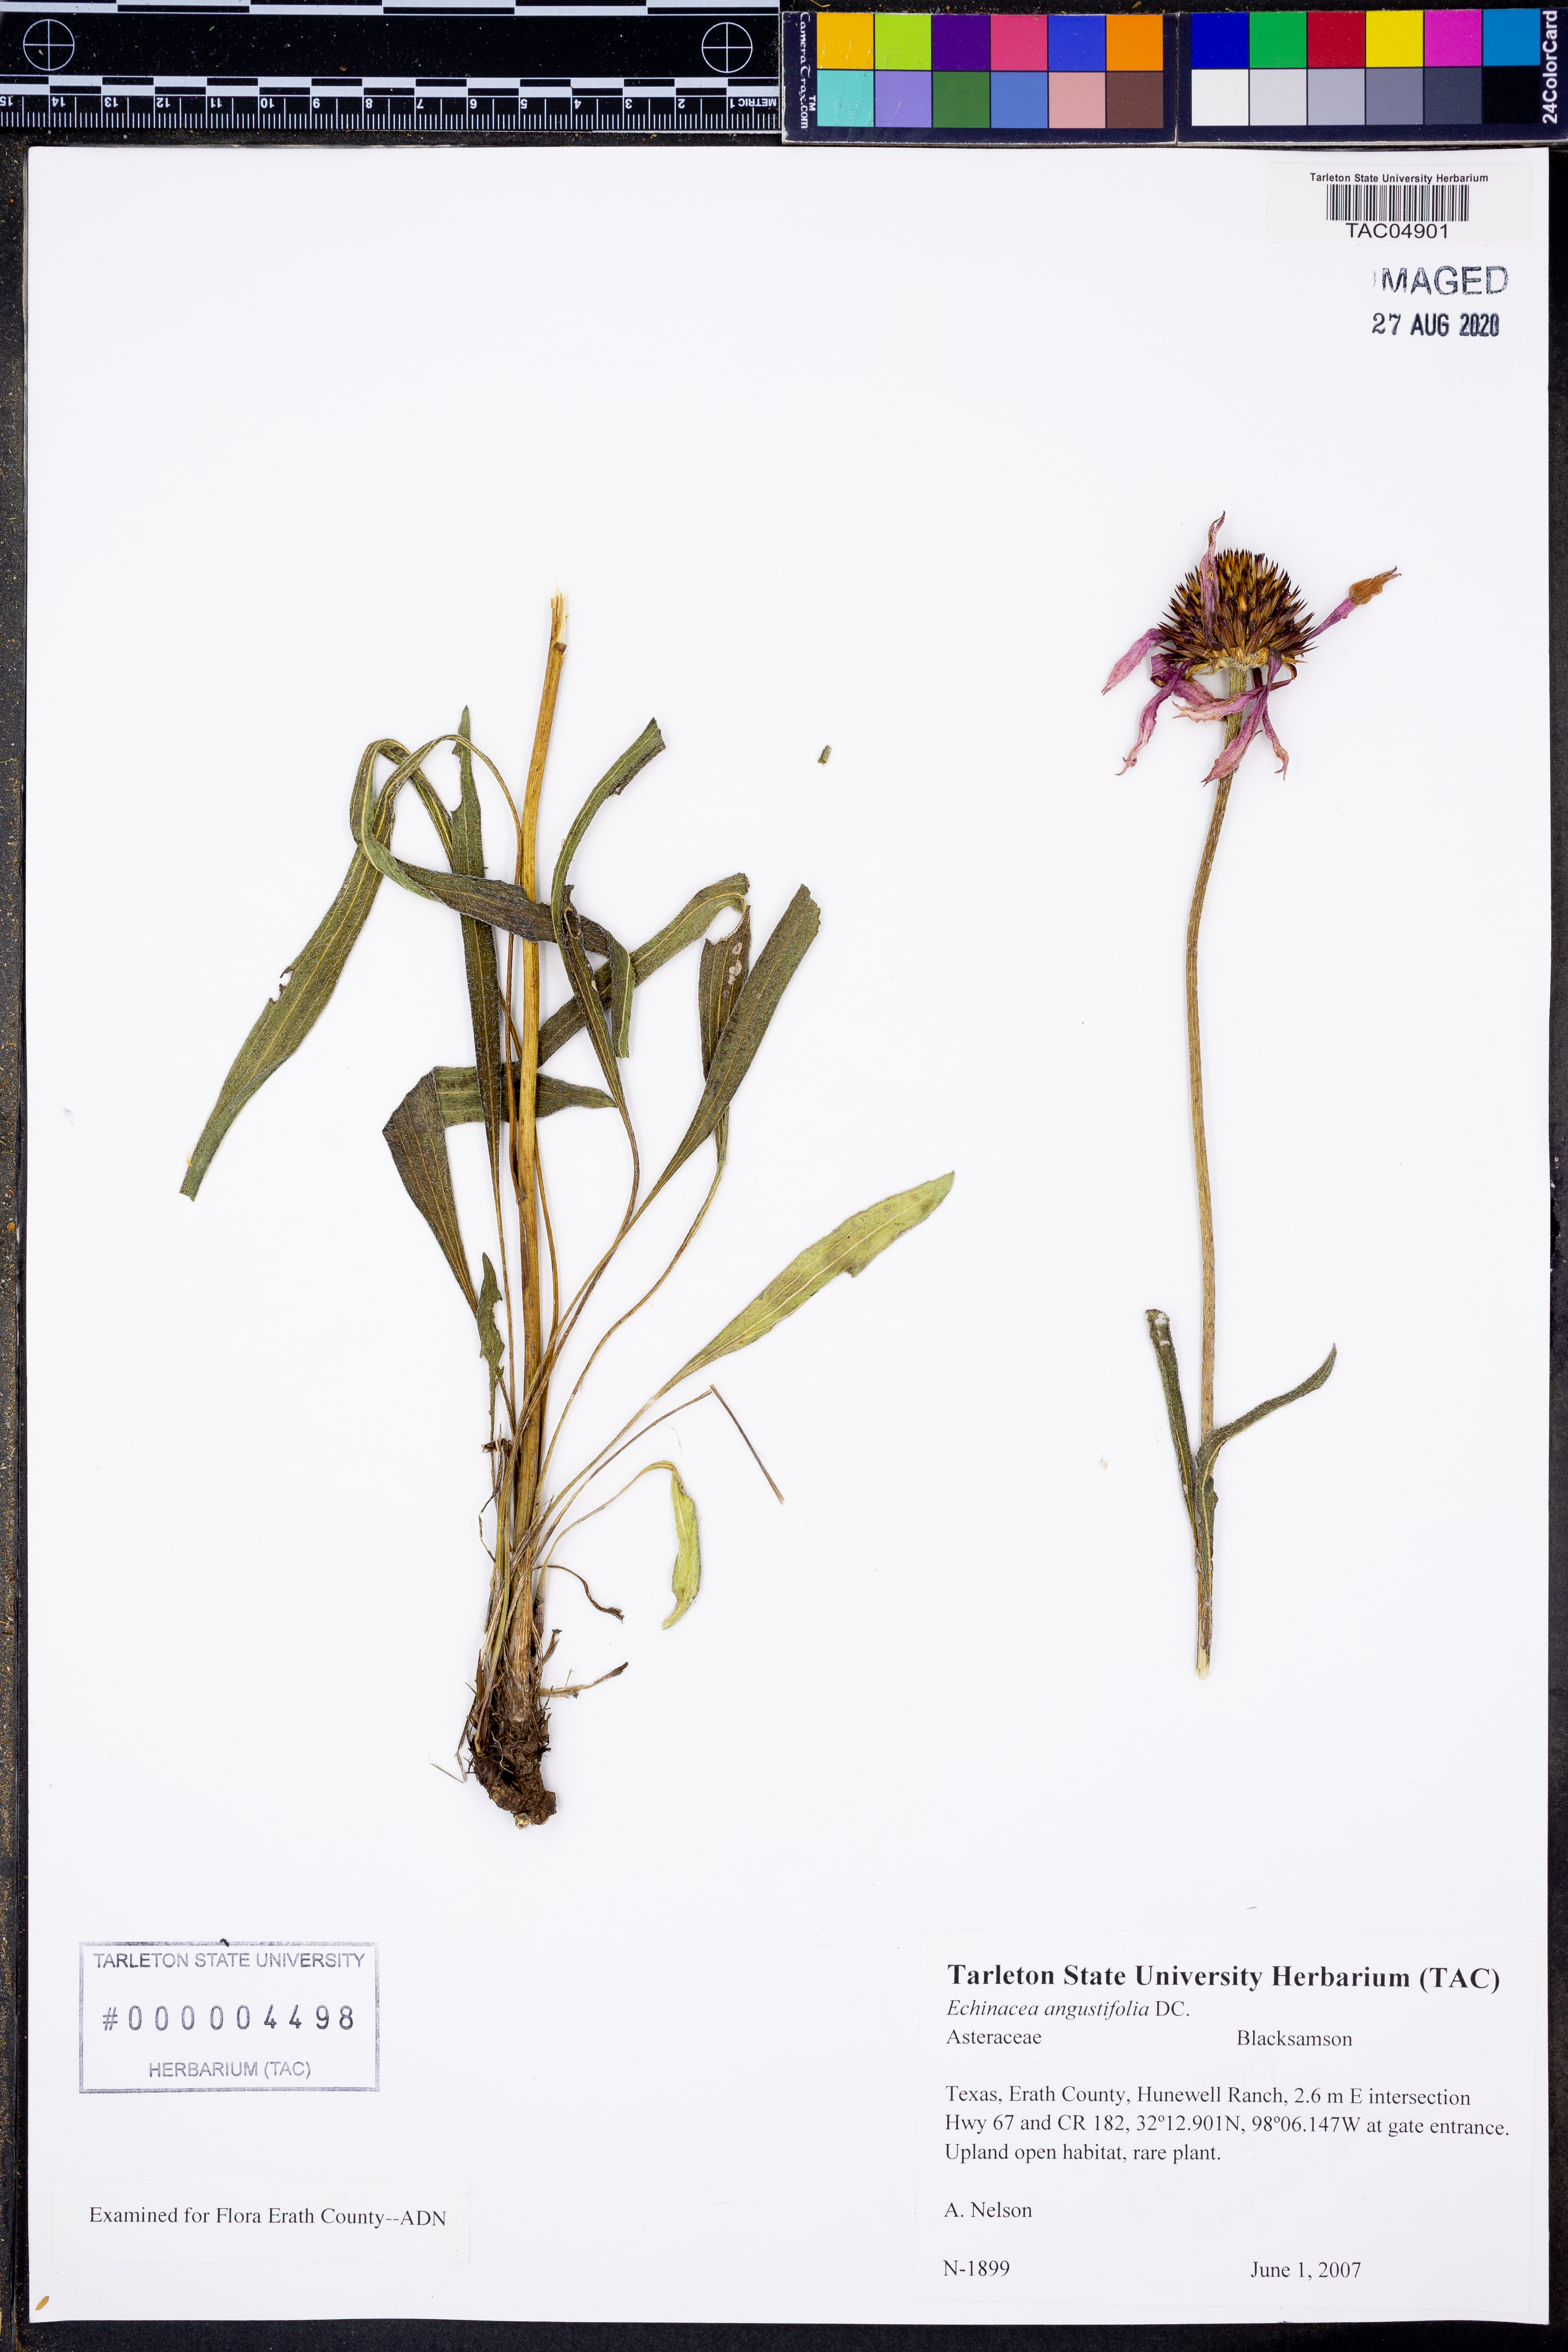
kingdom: Plantae
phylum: Tracheophyta
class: Magnoliopsida
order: Asterales
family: Asteraceae
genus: Echinacea
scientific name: Echinacea angustifolia
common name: Black-sampson echinacea
